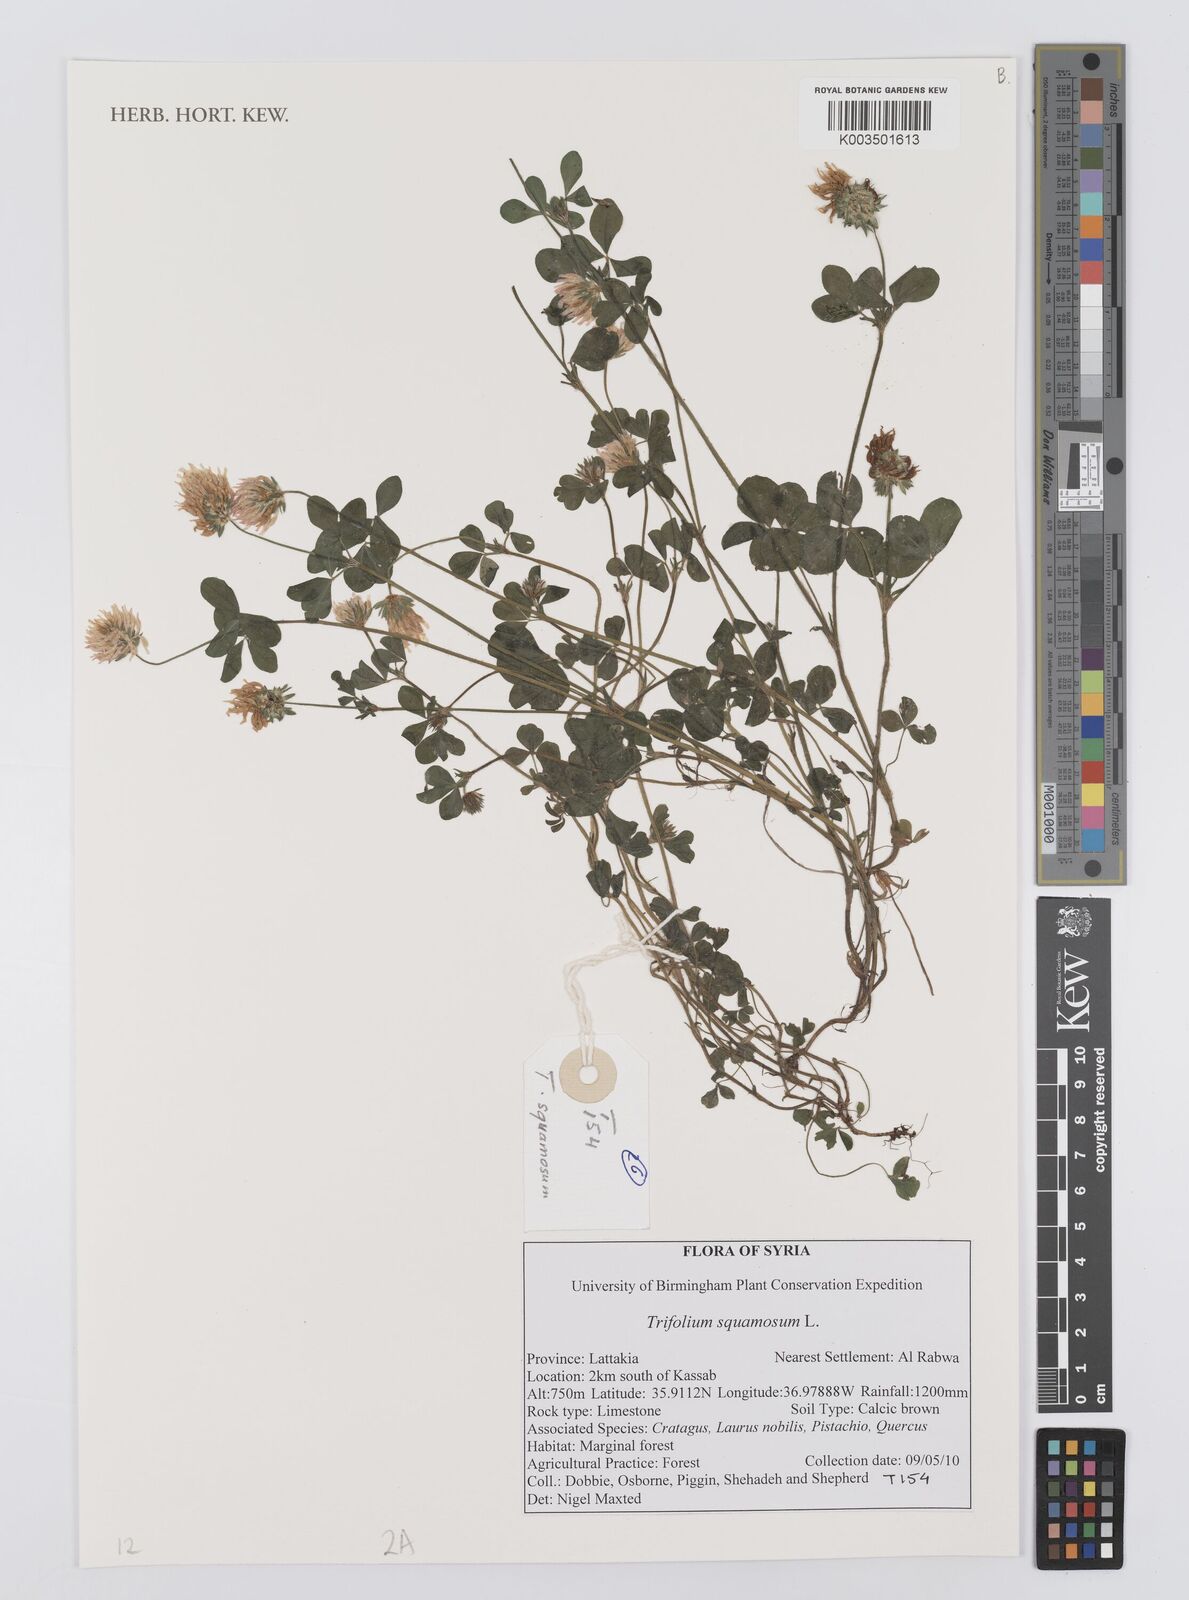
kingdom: Plantae
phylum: Tracheophyta
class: Magnoliopsida
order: Fabales
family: Fabaceae
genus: Trifolium
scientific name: Trifolium squamosum
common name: Sea clover
